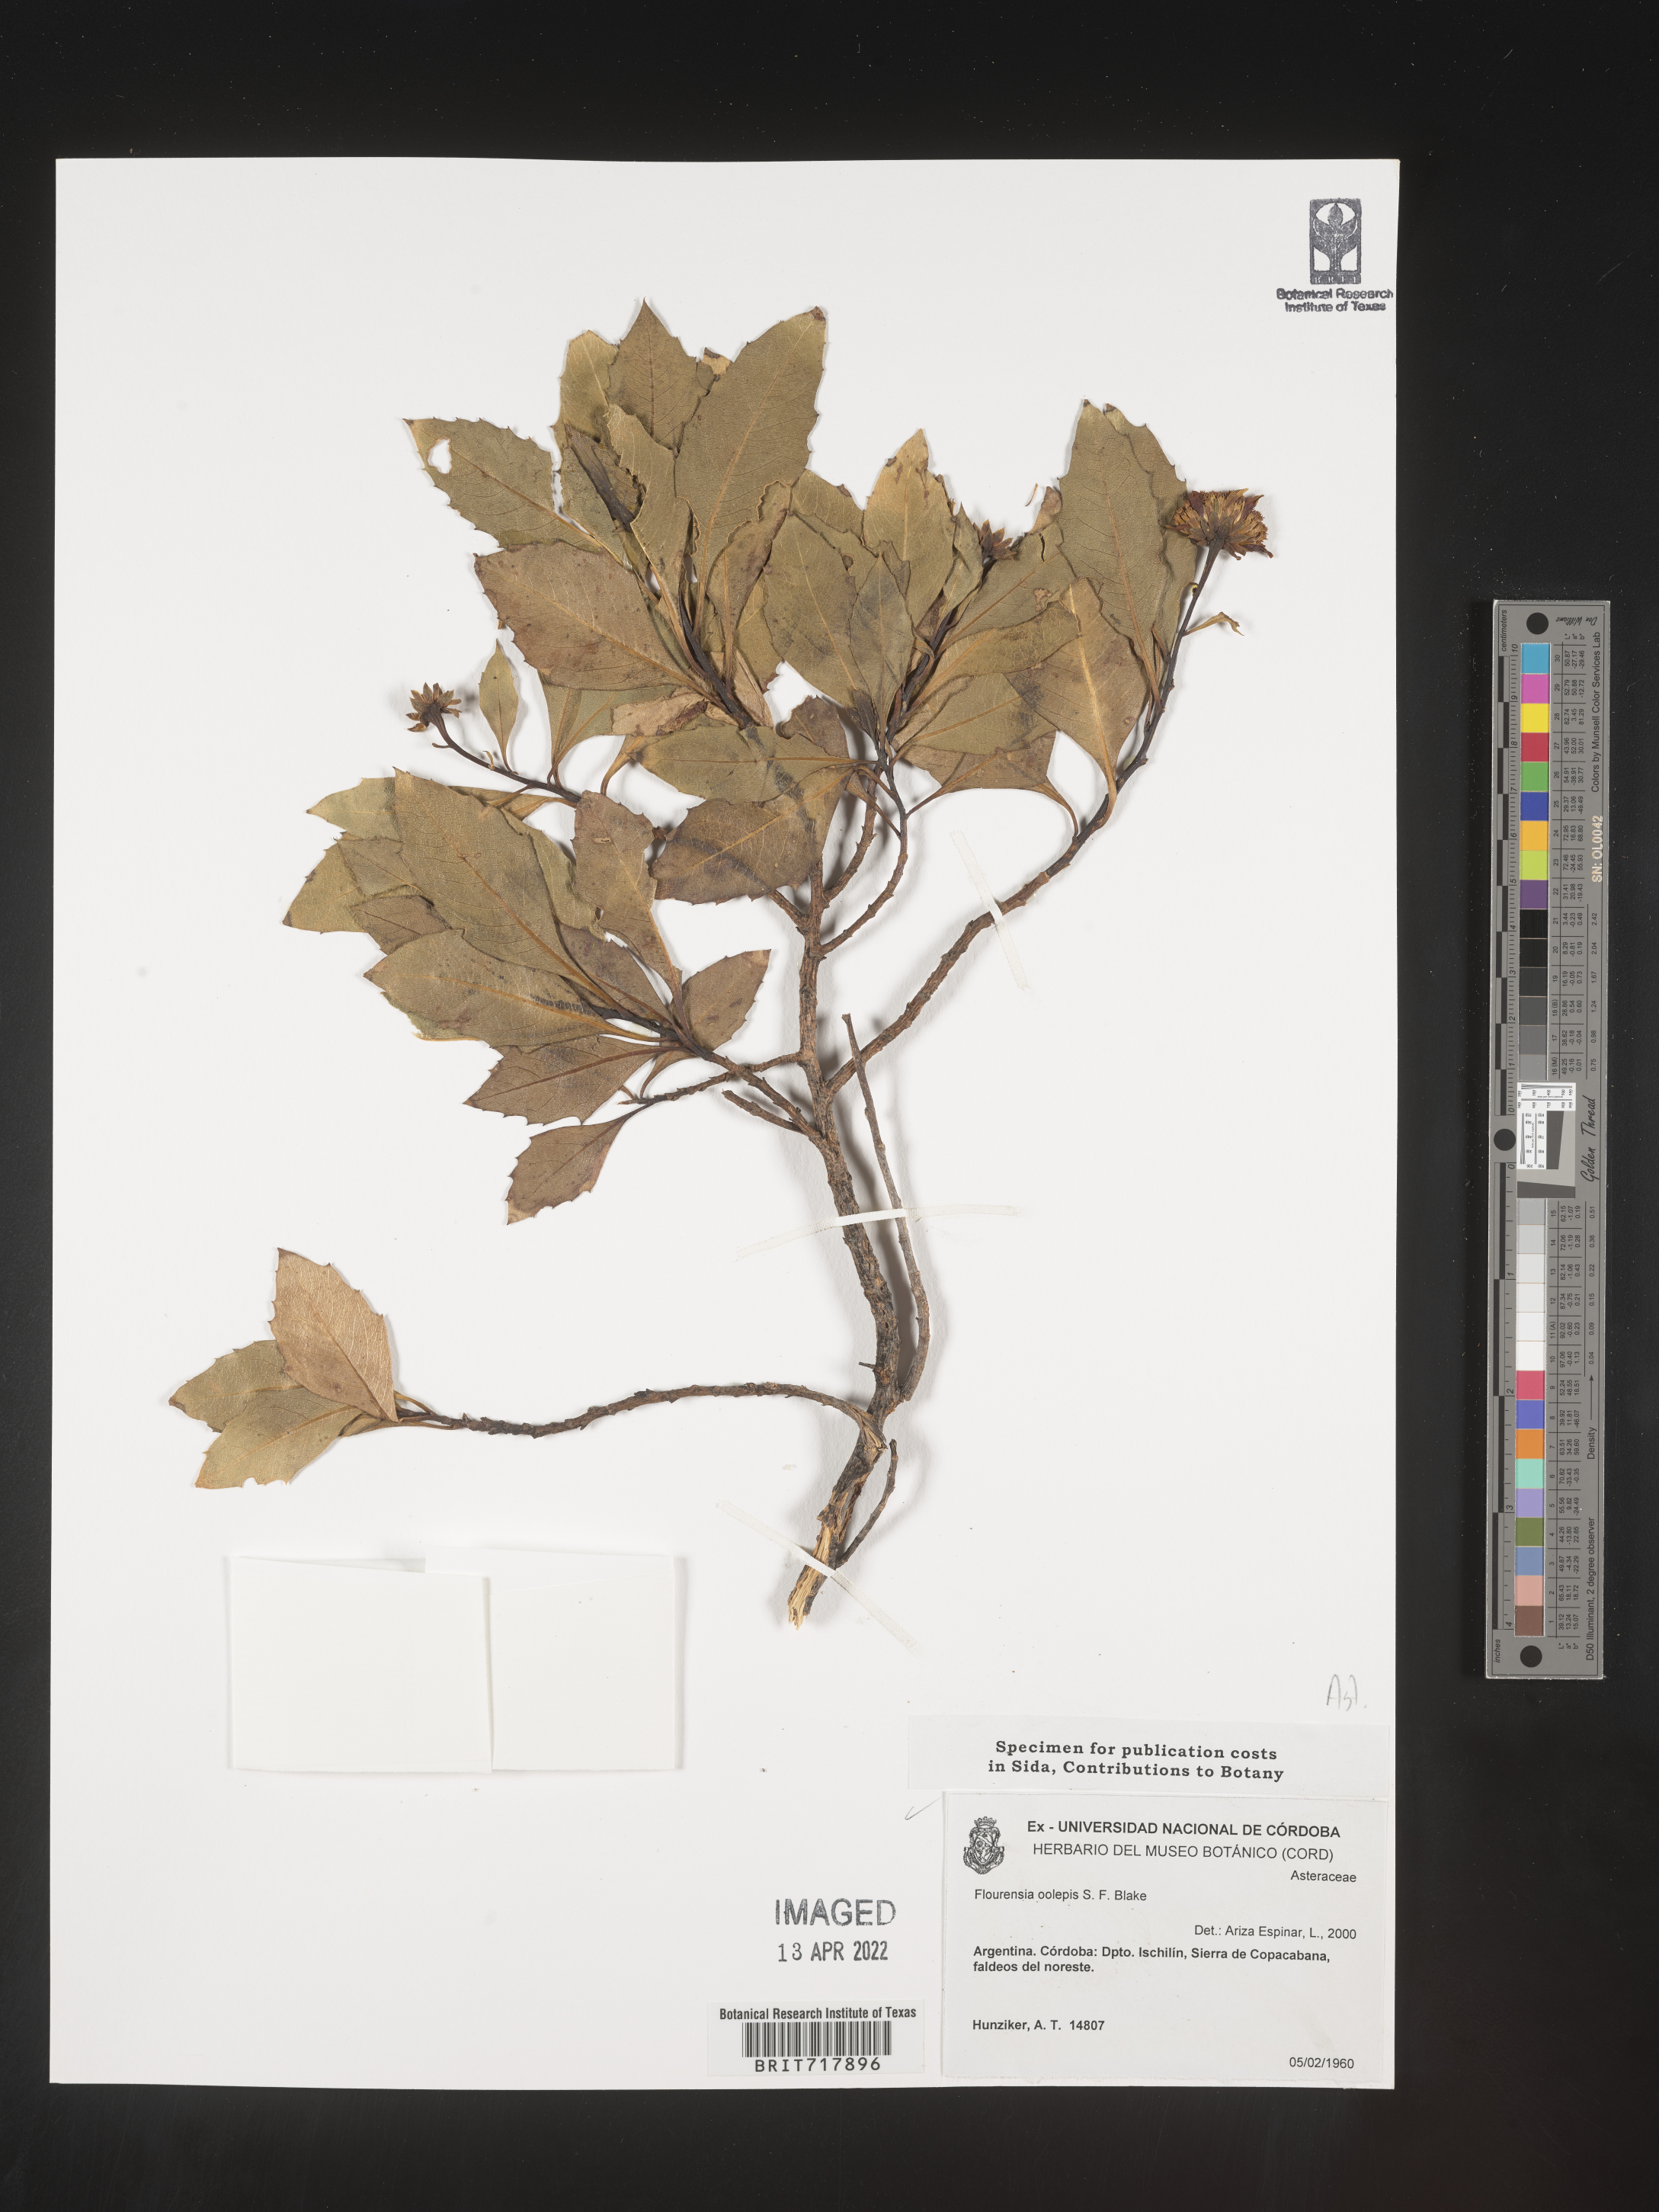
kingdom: Plantae
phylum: Tracheophyta
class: Magnoliopsida
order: Asterales
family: Asteraceae
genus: Flourensia
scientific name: Flourensia
